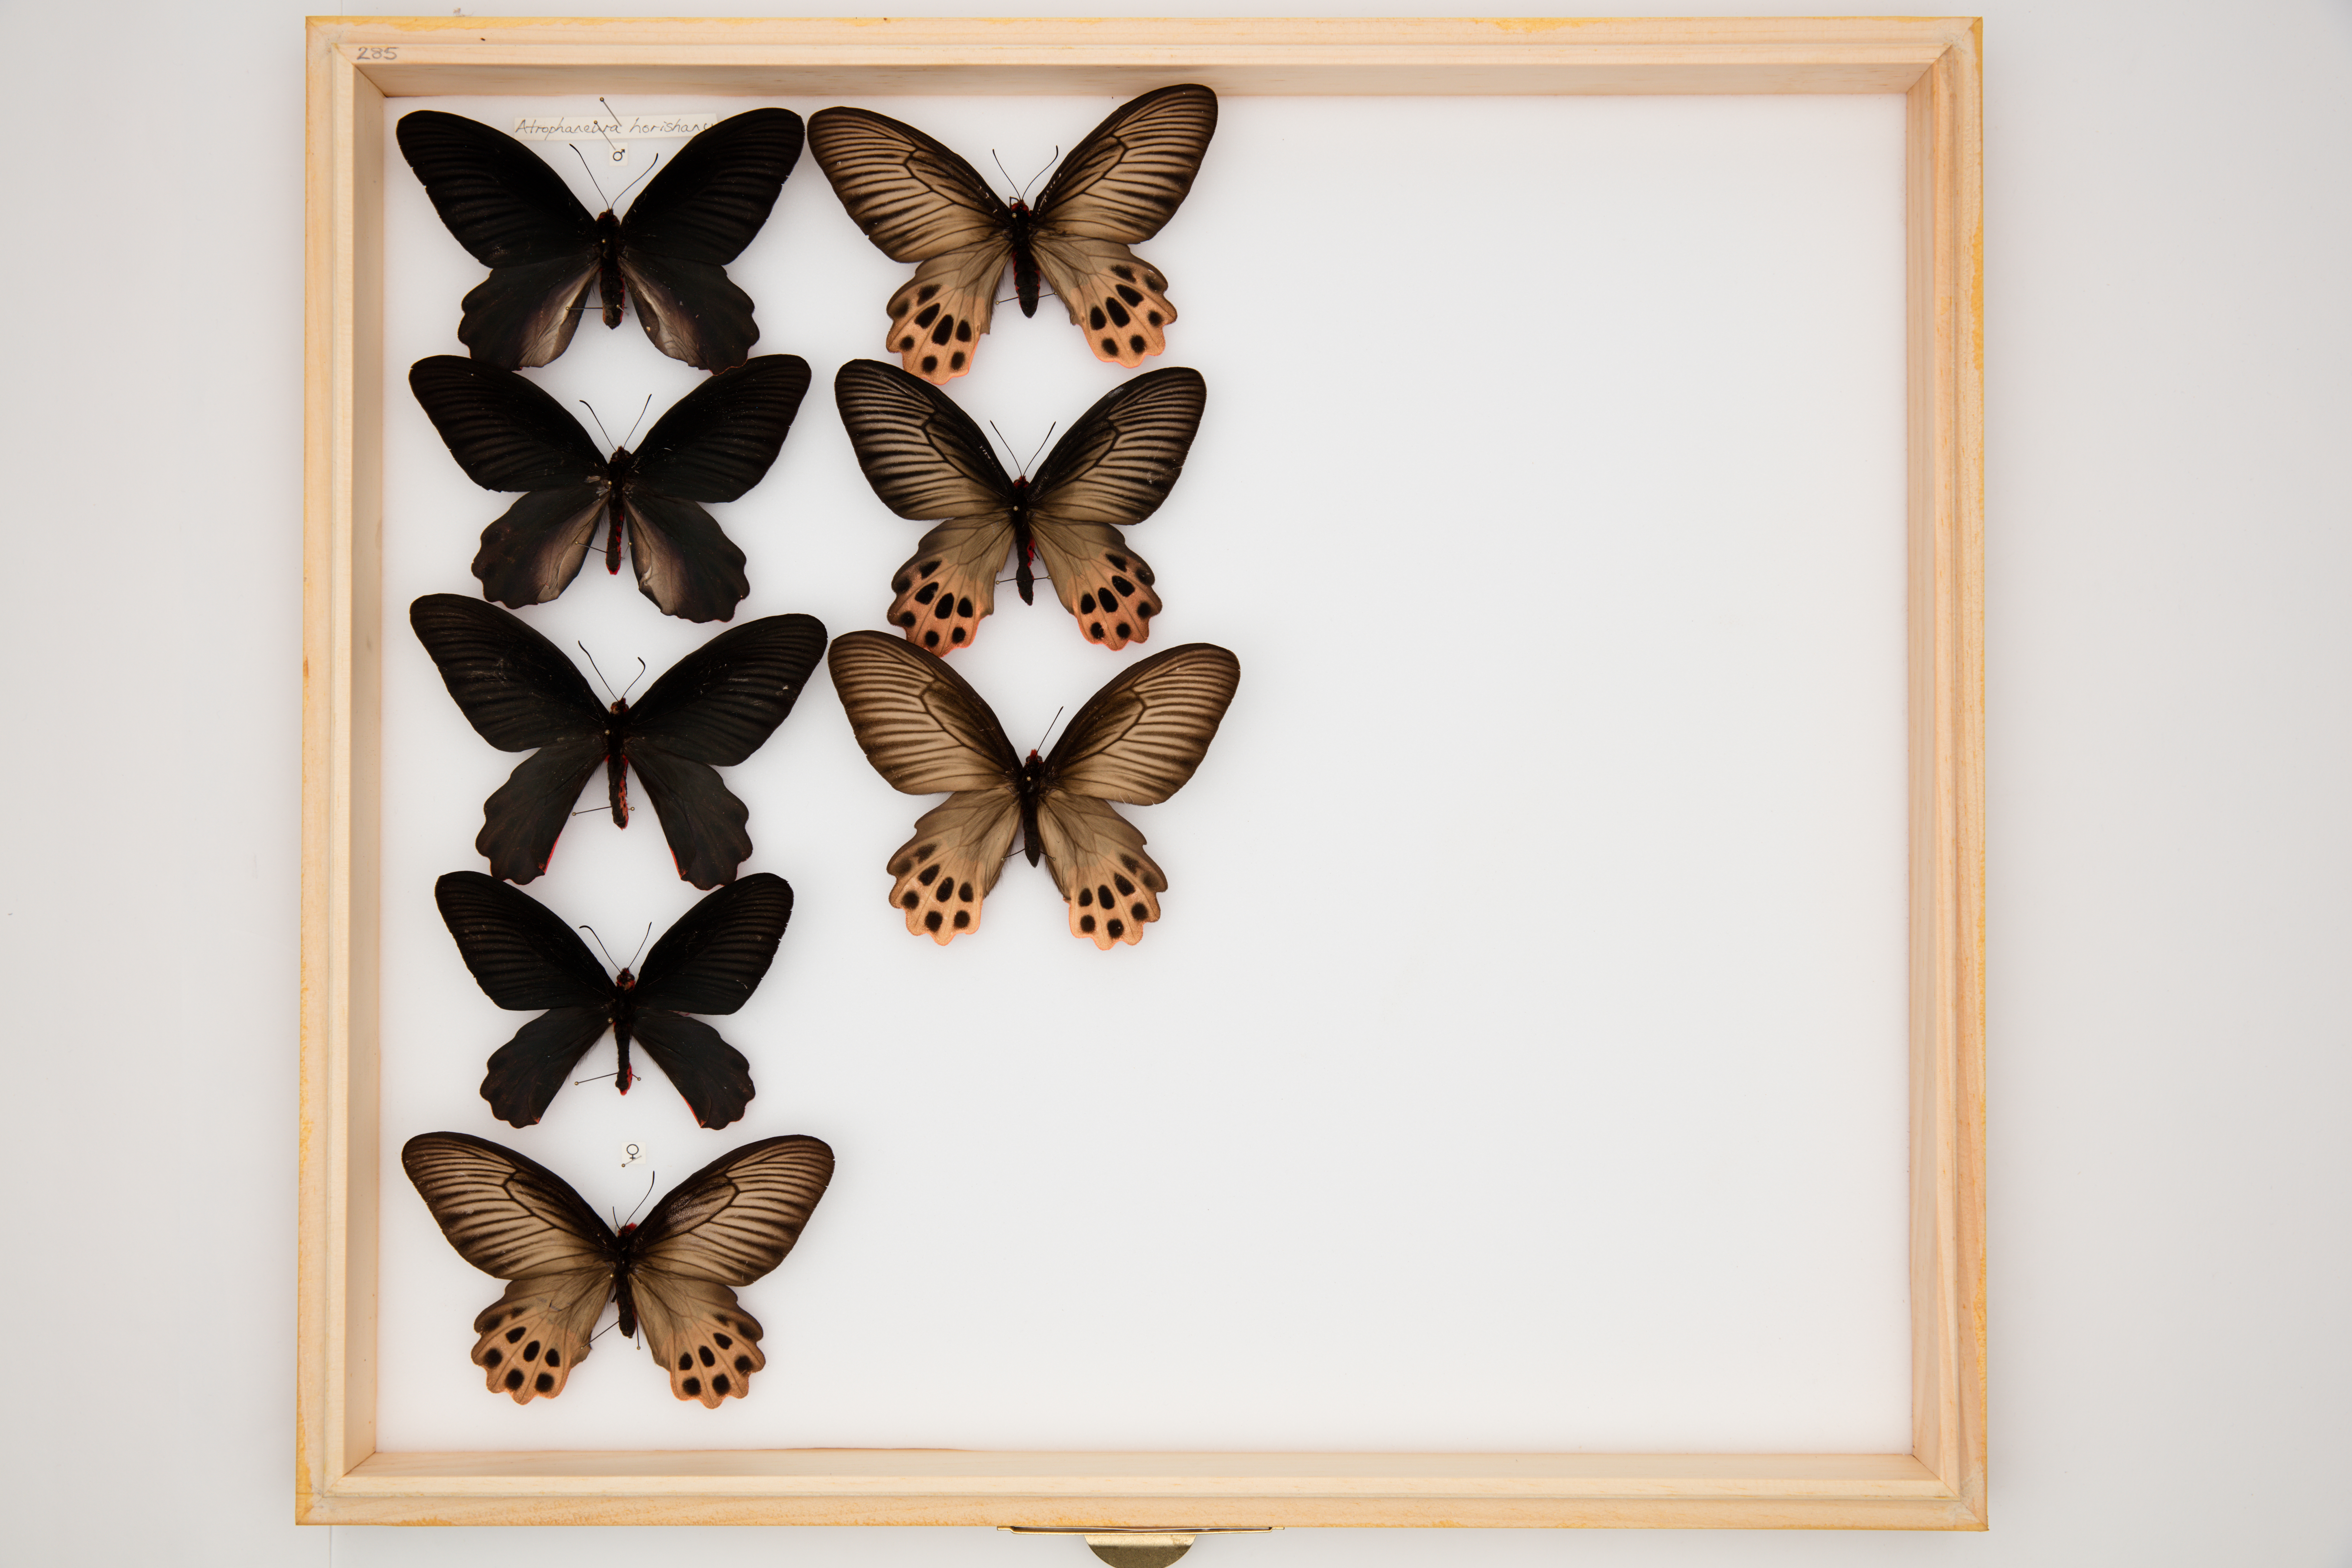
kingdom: Animalia
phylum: Arthropoda
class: Insecta
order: Lepidoptera
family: Papilionidae
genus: Atrophaneura
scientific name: Atrophaneura horishanus
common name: Aurora swallowtail
